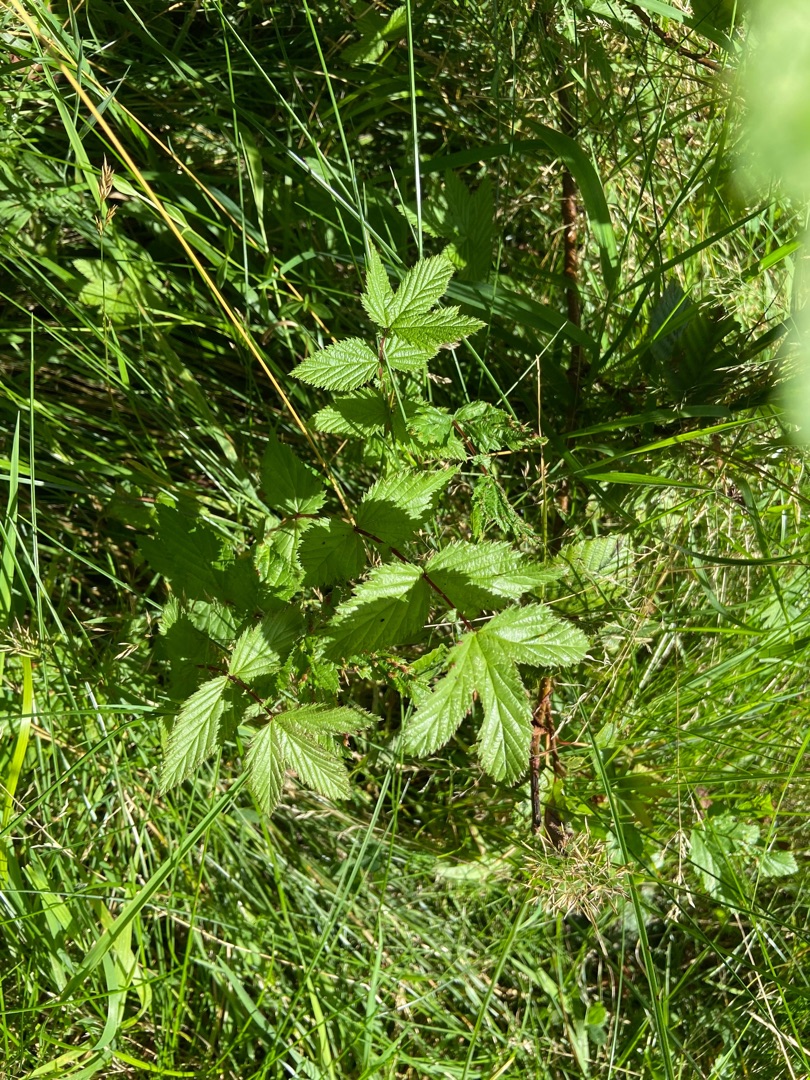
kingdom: Plantae
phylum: Tracheophyta
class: Magnoliopsida
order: Rosales
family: Rosaceae
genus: Filipendula
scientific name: Filipendula ulmaria
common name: Almindelig mjødurt
